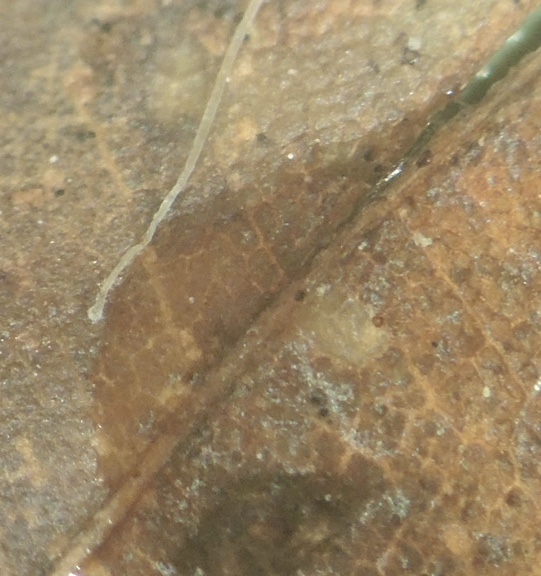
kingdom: Fungi
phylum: Basidiomycota
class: Agaricomycetes
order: Agaricales
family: Mycenaceae
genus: Mycena
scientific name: Mycena
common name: huesvamp
